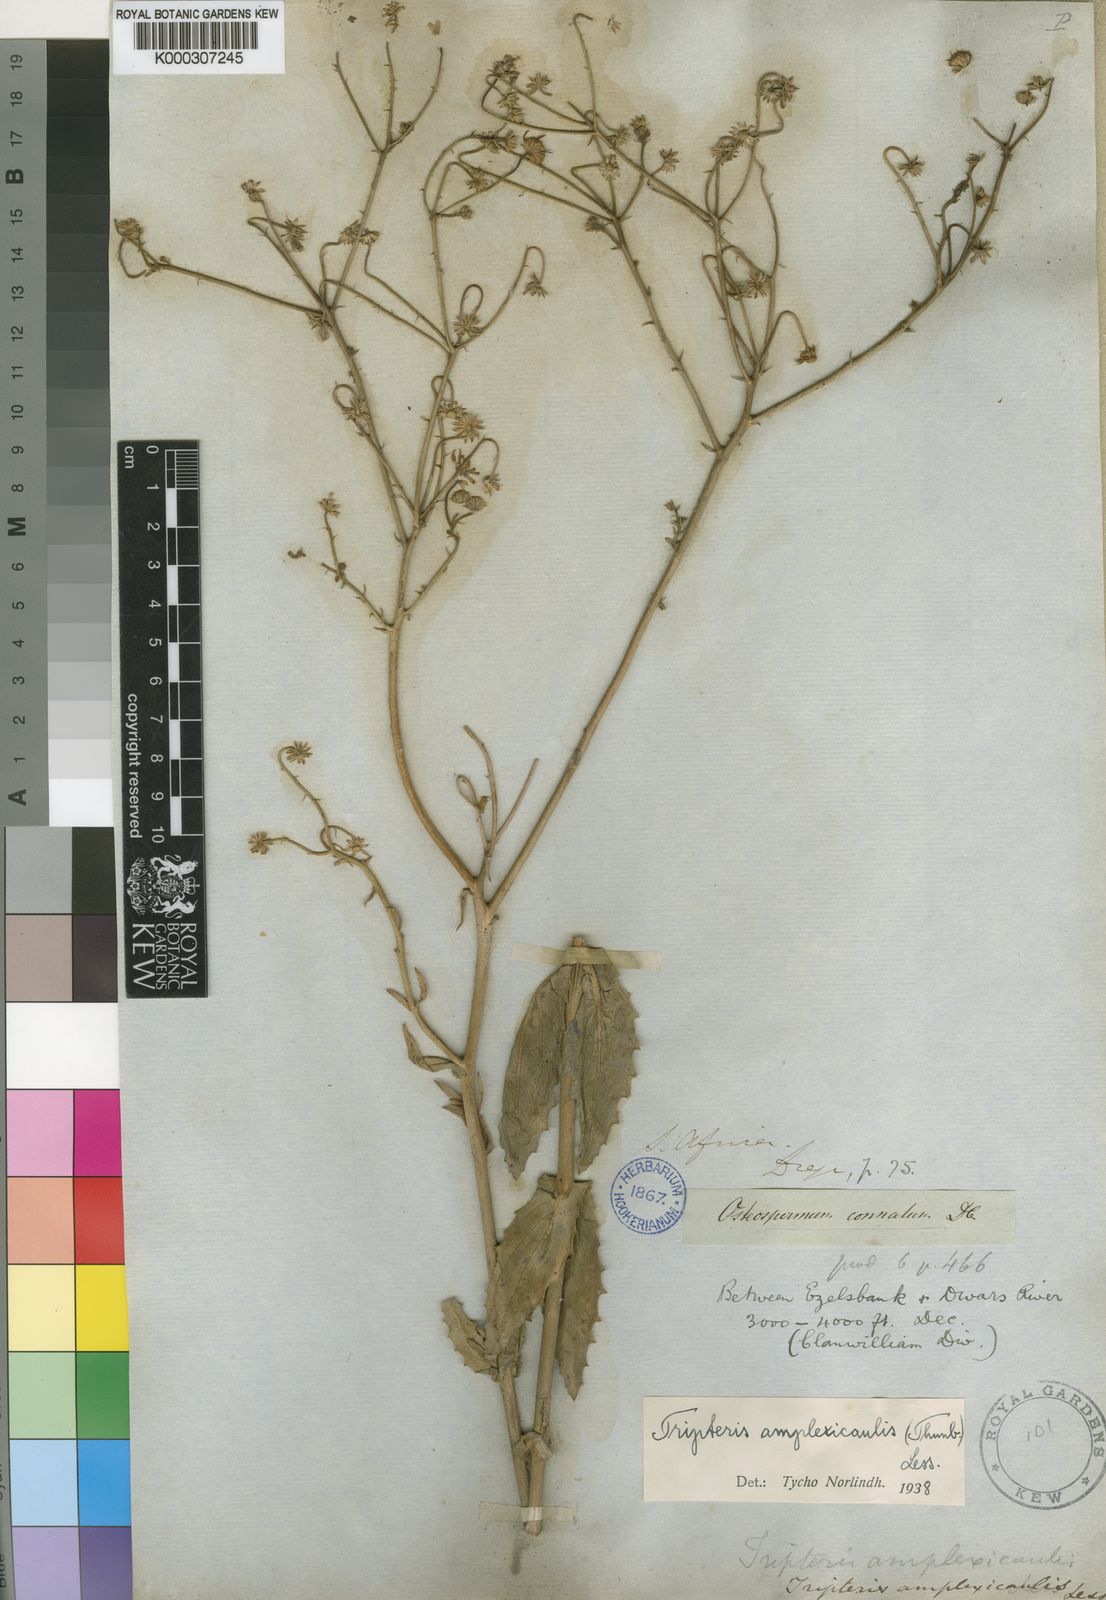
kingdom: Plantae
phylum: Tracheophyta
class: Magnoliopsida
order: Asterales
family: Asteraceae
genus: Osteospermum
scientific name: Osteospermum connatum
